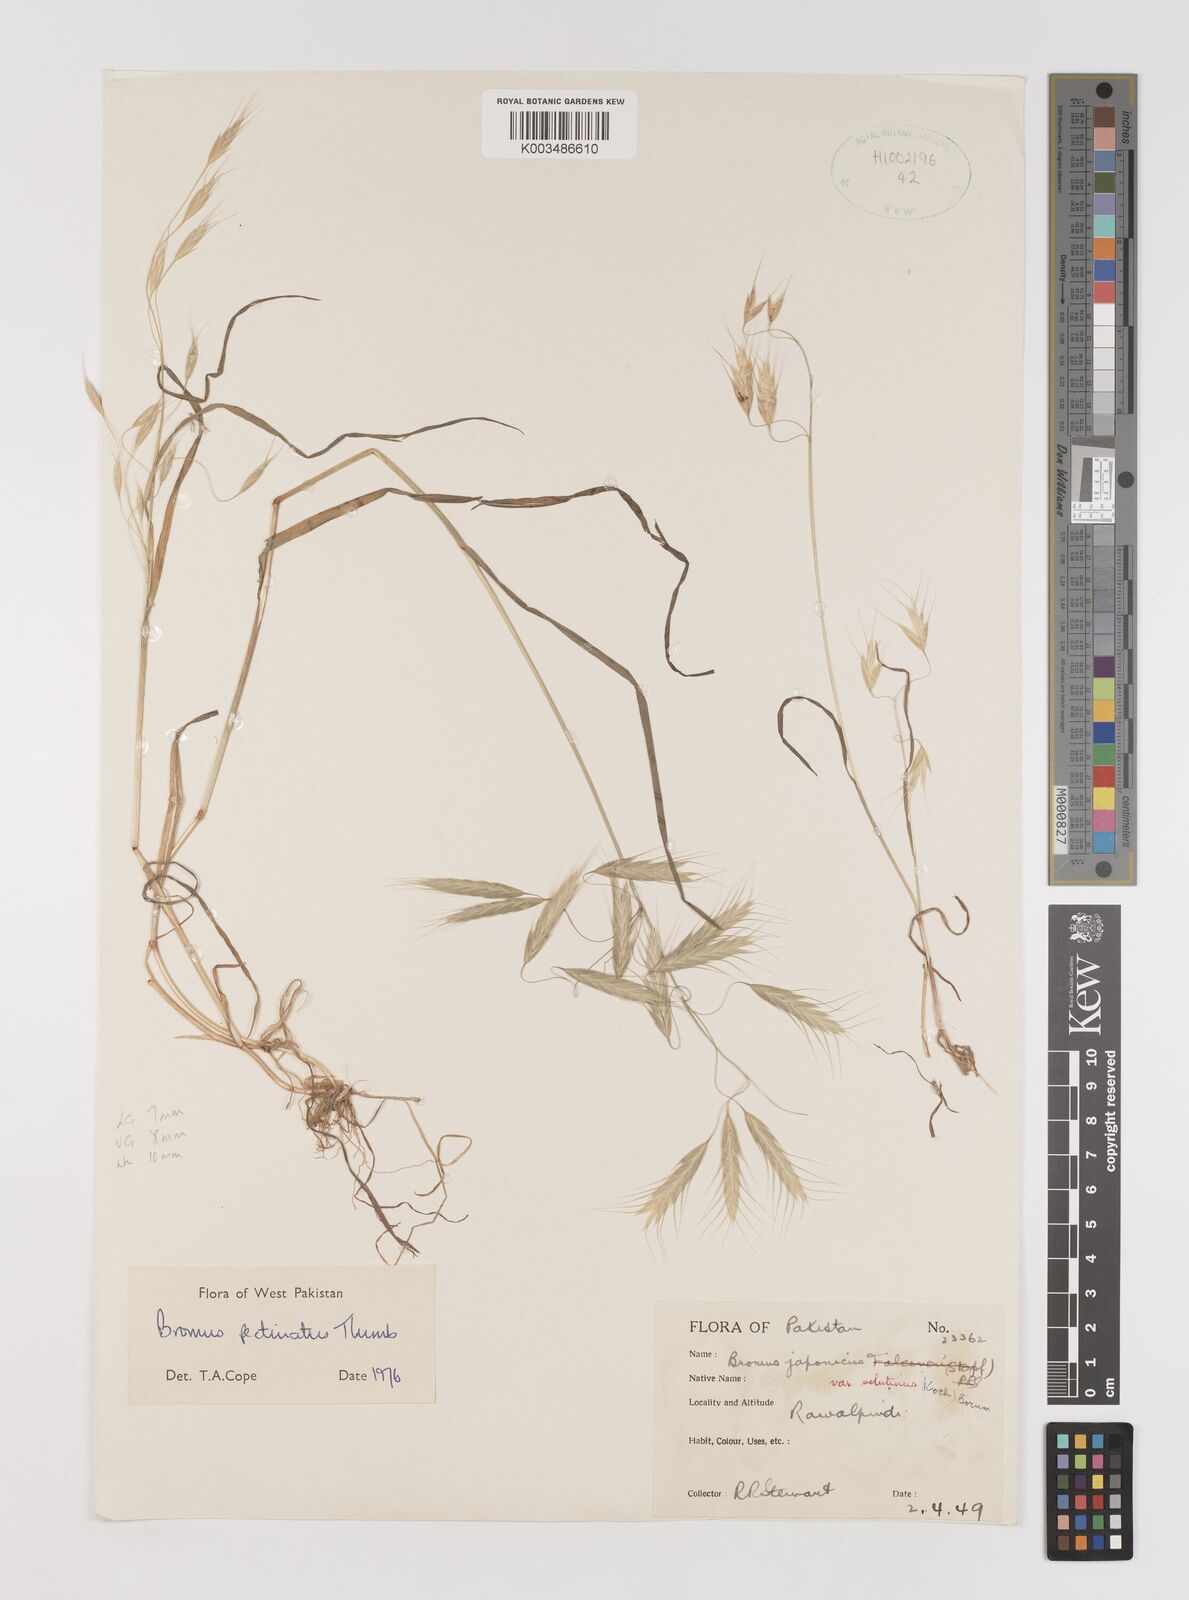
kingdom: Plantae
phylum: Tracheophyta
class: Liliopsida
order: Poales
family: Poaceae
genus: Bromus
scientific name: Bromus pectinatus
